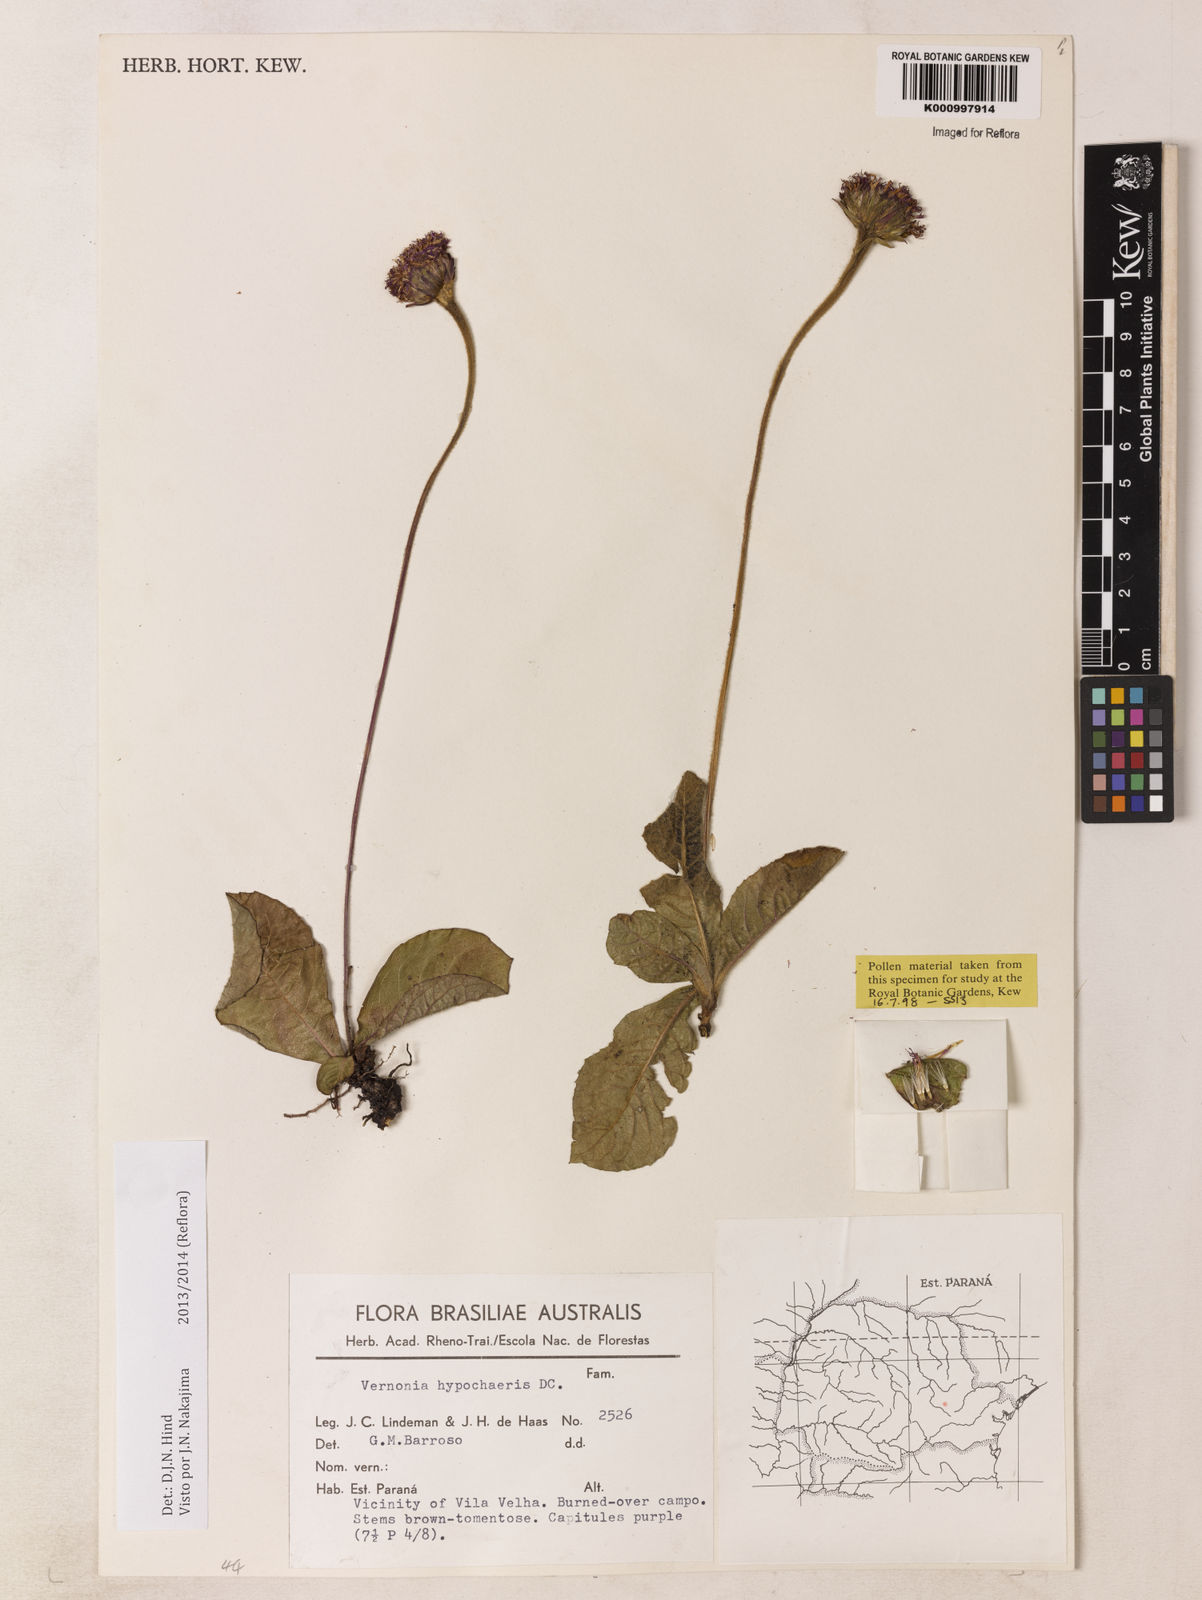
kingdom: Plantae
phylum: Tracheophyta
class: Magnoliopsida
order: Asterales
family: Asteraceae
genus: Lessingianthus
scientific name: Lessingianthus hypochaeris
